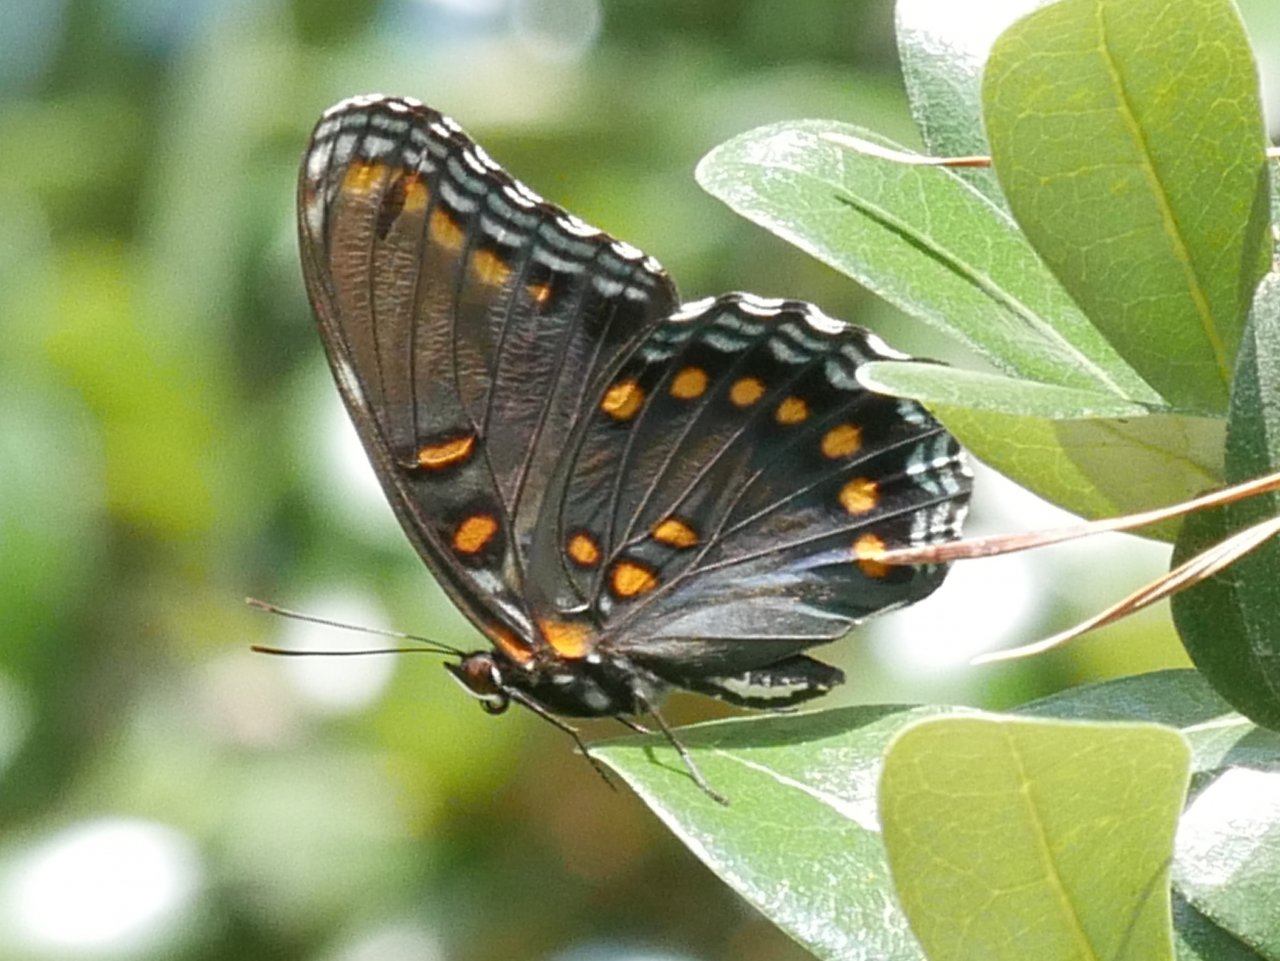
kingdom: Animalia
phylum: Arthropoda
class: Insecta
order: Lepidoptera
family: Nymphalidae
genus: Limenitis
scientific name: Limenitis astyanax
